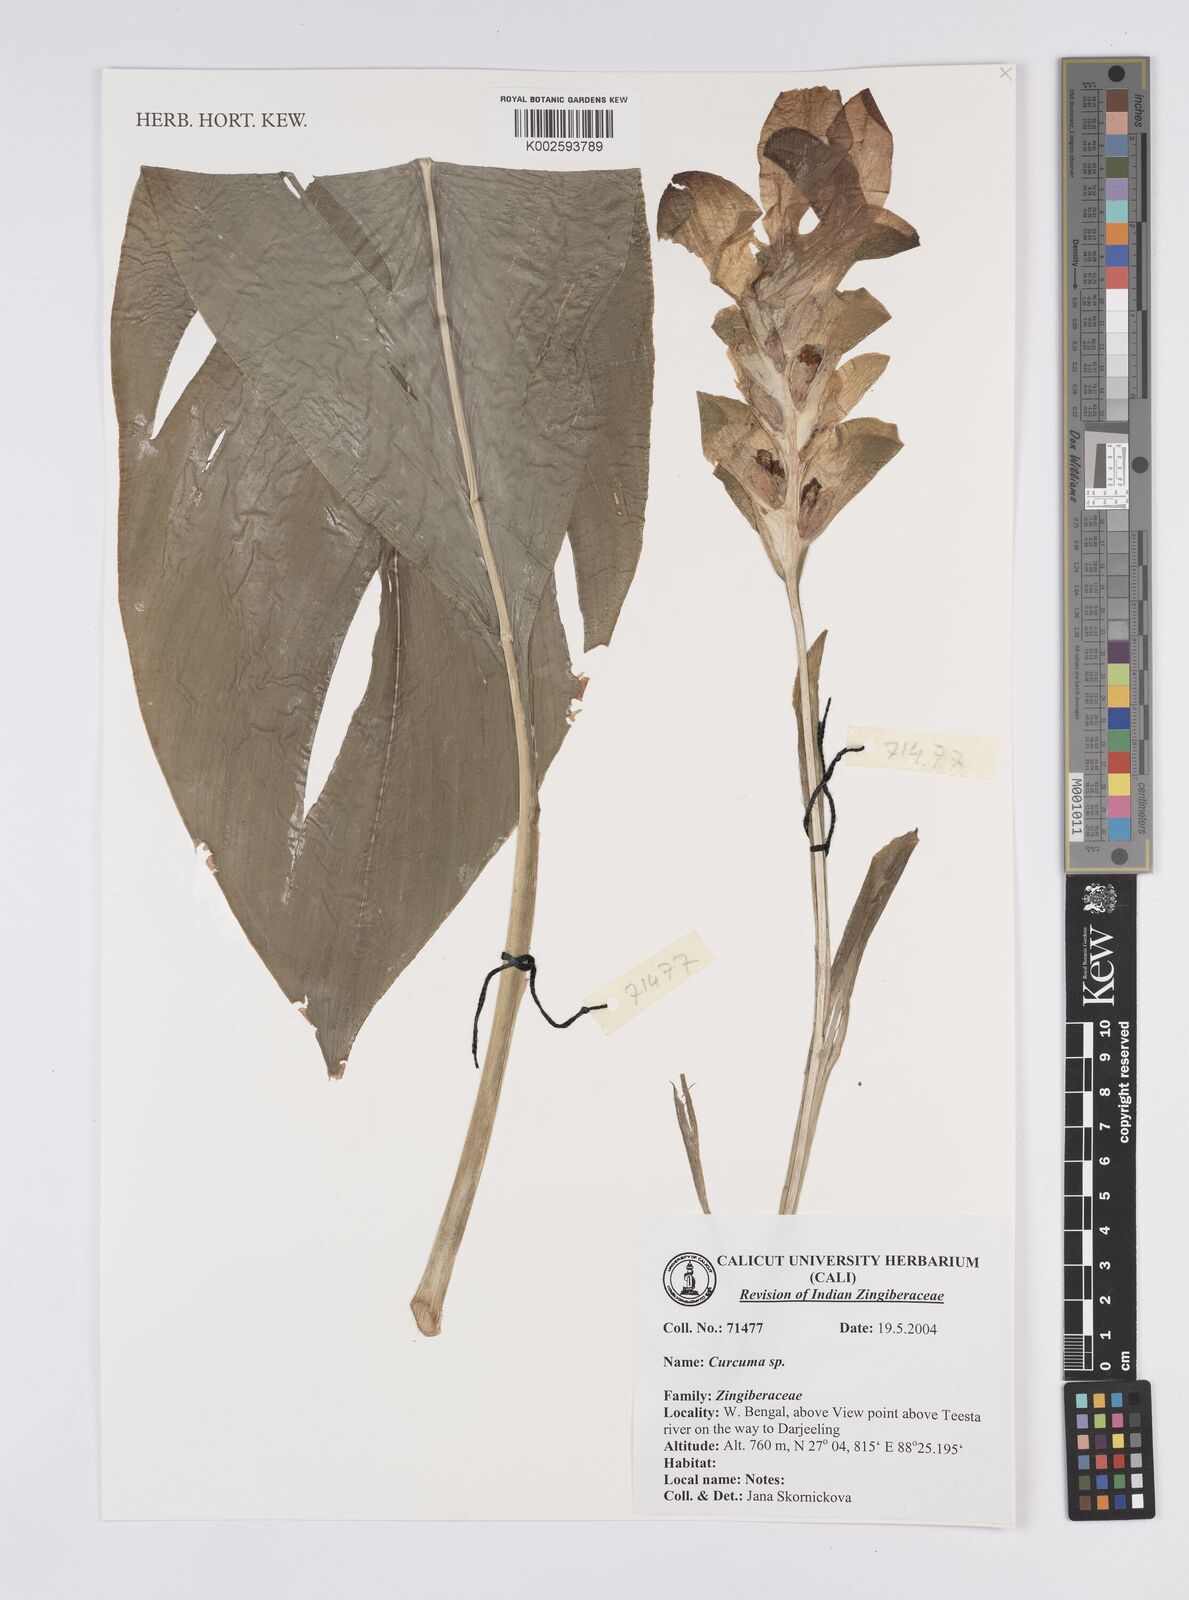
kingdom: Plantae
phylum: Tracheophyta
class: Liliopsida
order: Zingiberales
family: Zingiberaceae
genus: Curcuma
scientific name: Curcuma
